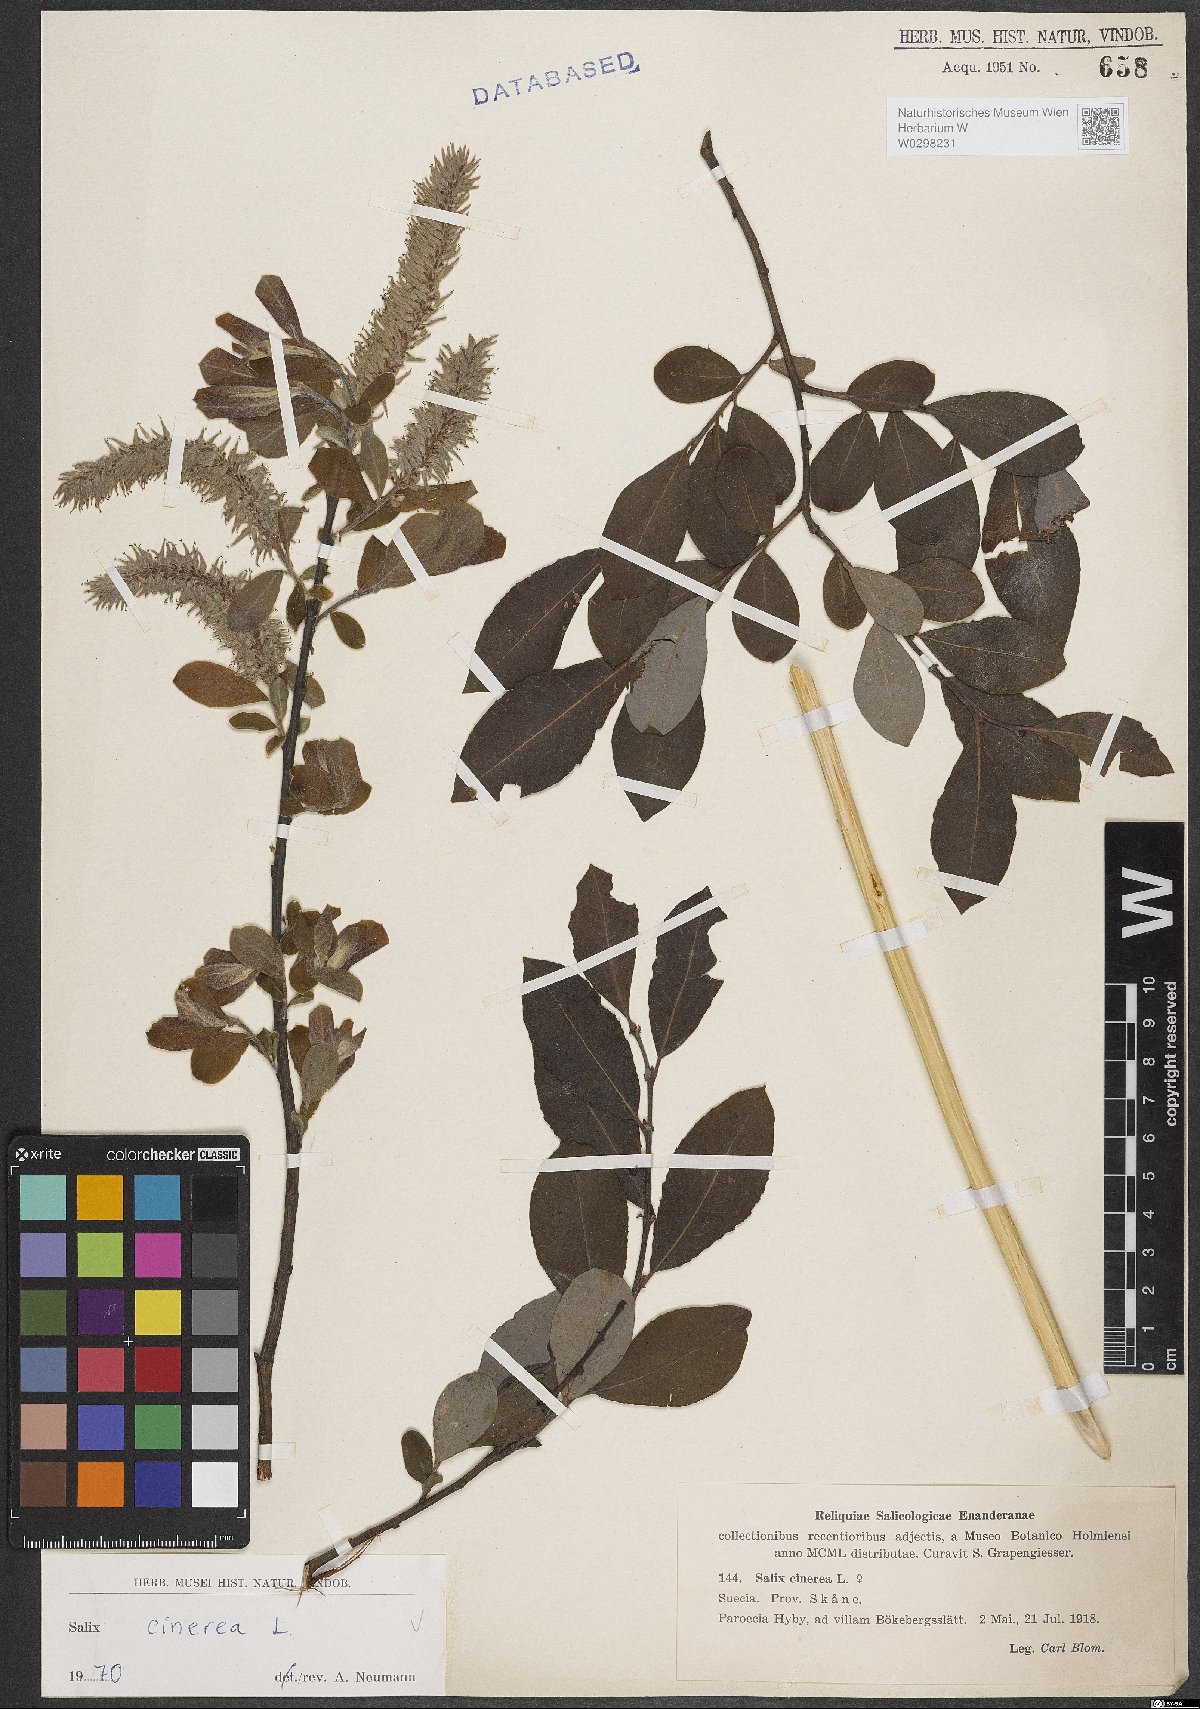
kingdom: Plantae
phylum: Tracheophyta
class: Magnoliopsida
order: Malpighiales
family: Salicaceae
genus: Salix
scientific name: Salix cinerea
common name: Common sallow
